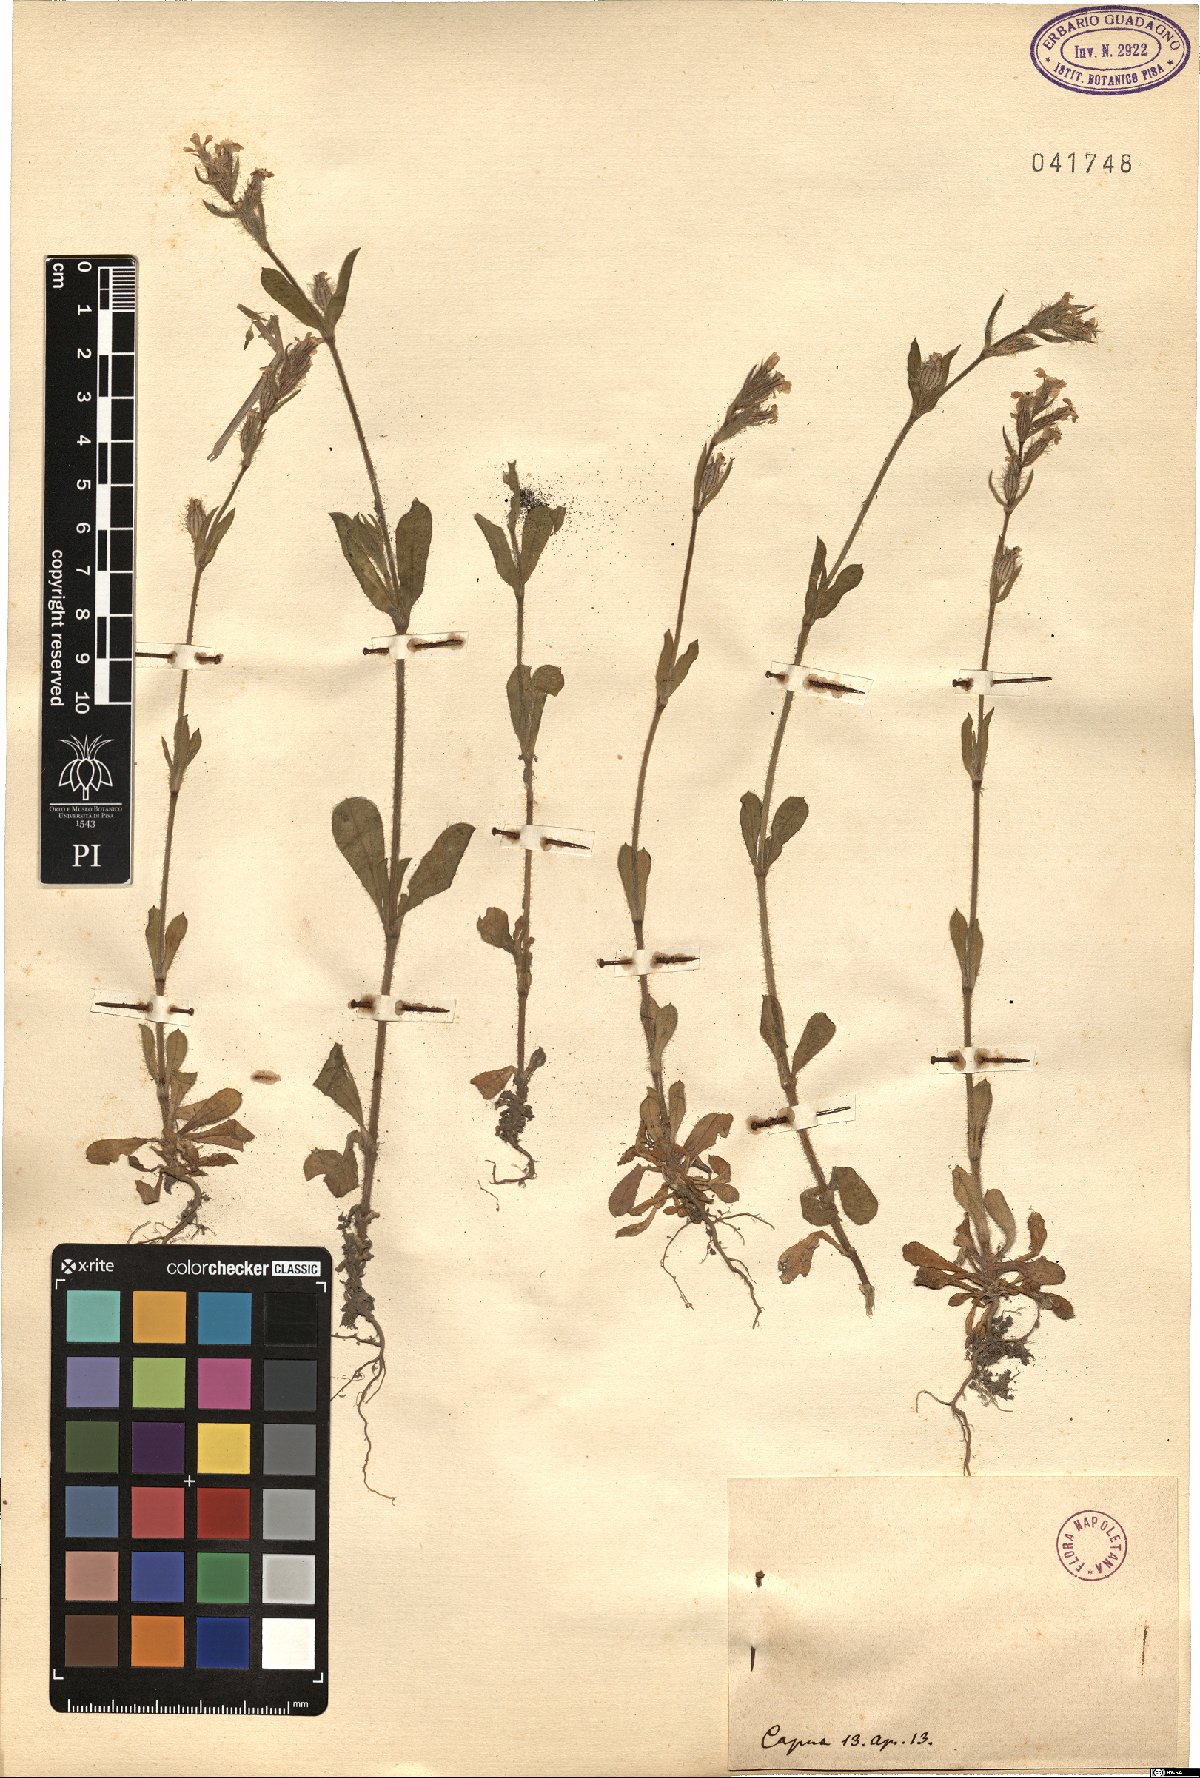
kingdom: Plantae
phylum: Tracheophyta
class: Magnoliopsida
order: Caryophyllales
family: Caryophyllaceae
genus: Silene
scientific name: Silene
